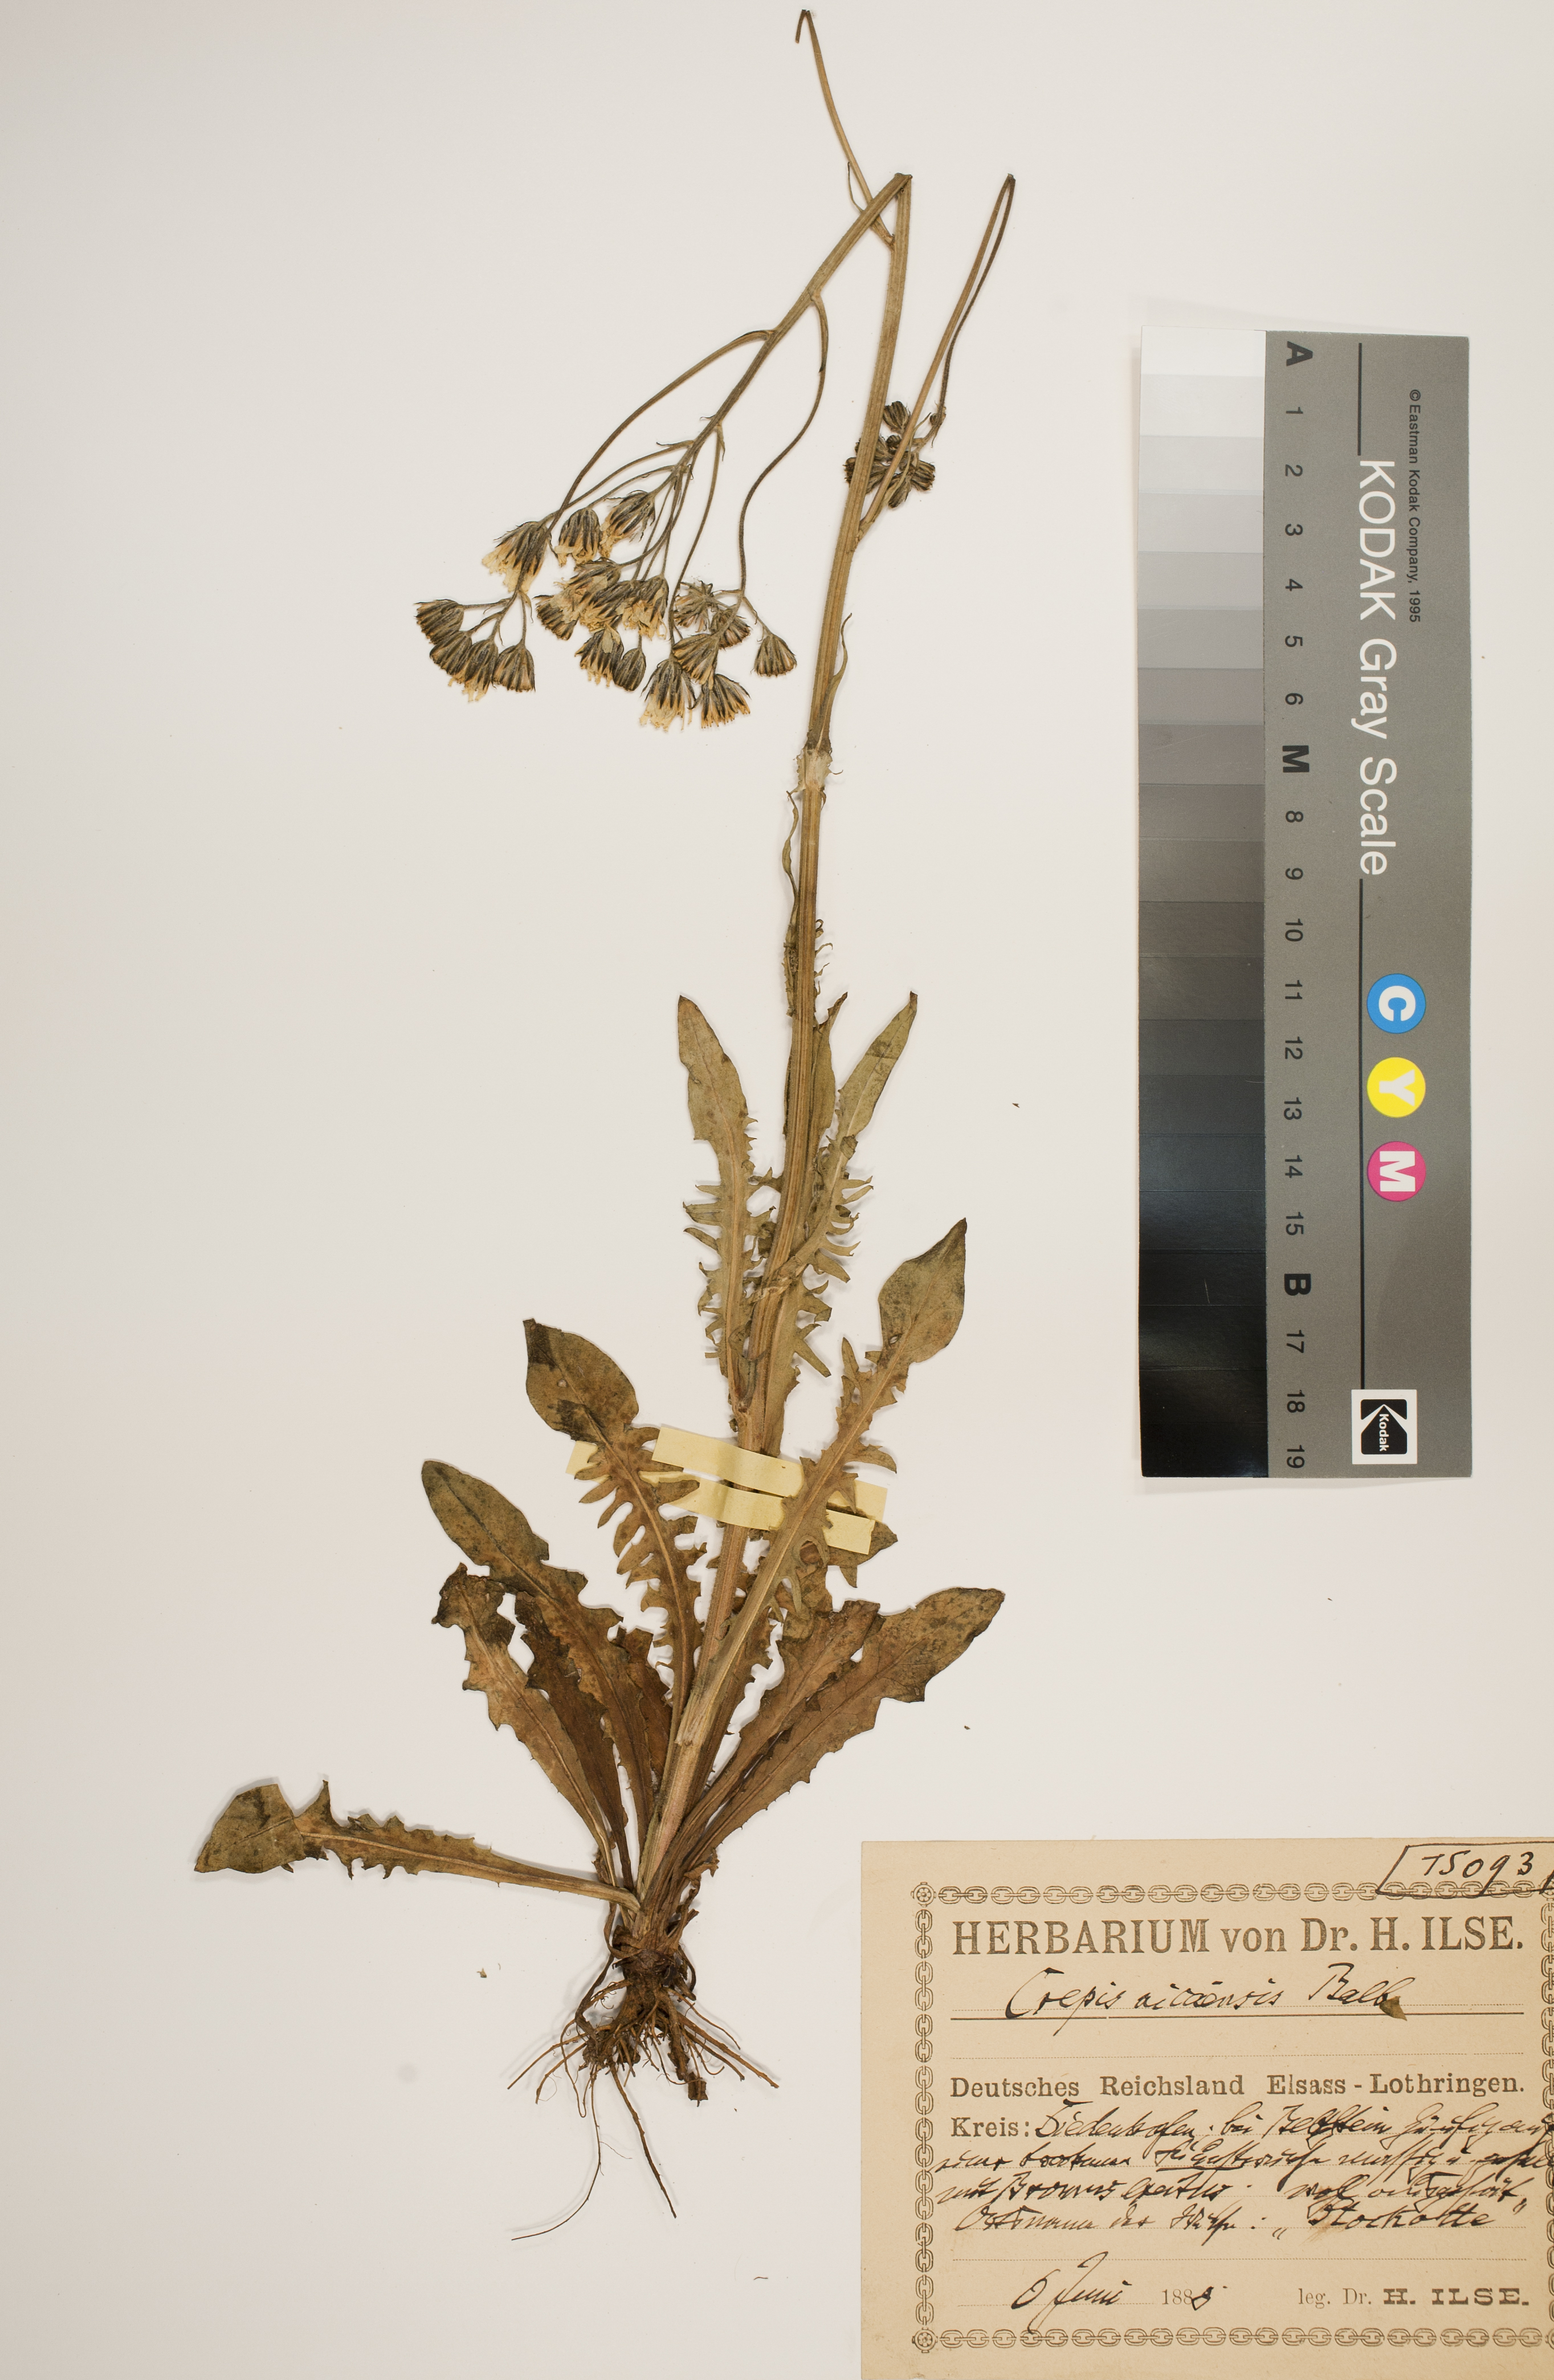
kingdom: Plantae
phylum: Tracheophyta
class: Magnoliopsida
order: Asterales
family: Asteraceae
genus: Crepis
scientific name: Crepis nicaeensis
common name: Turkish hawksbeard
